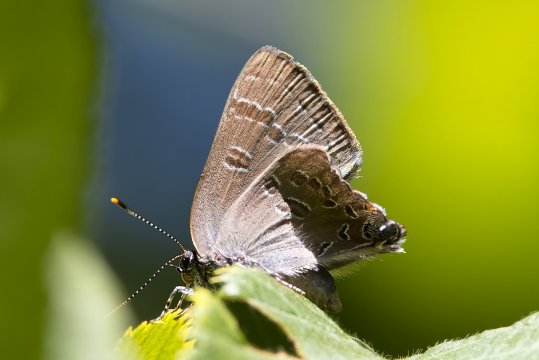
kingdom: Animalia
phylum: Arthropoda
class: Insecta
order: Lepidoptera
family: Lycaenidae
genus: Satyrium
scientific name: Satyrium calanus
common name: Banded Hairstreak
